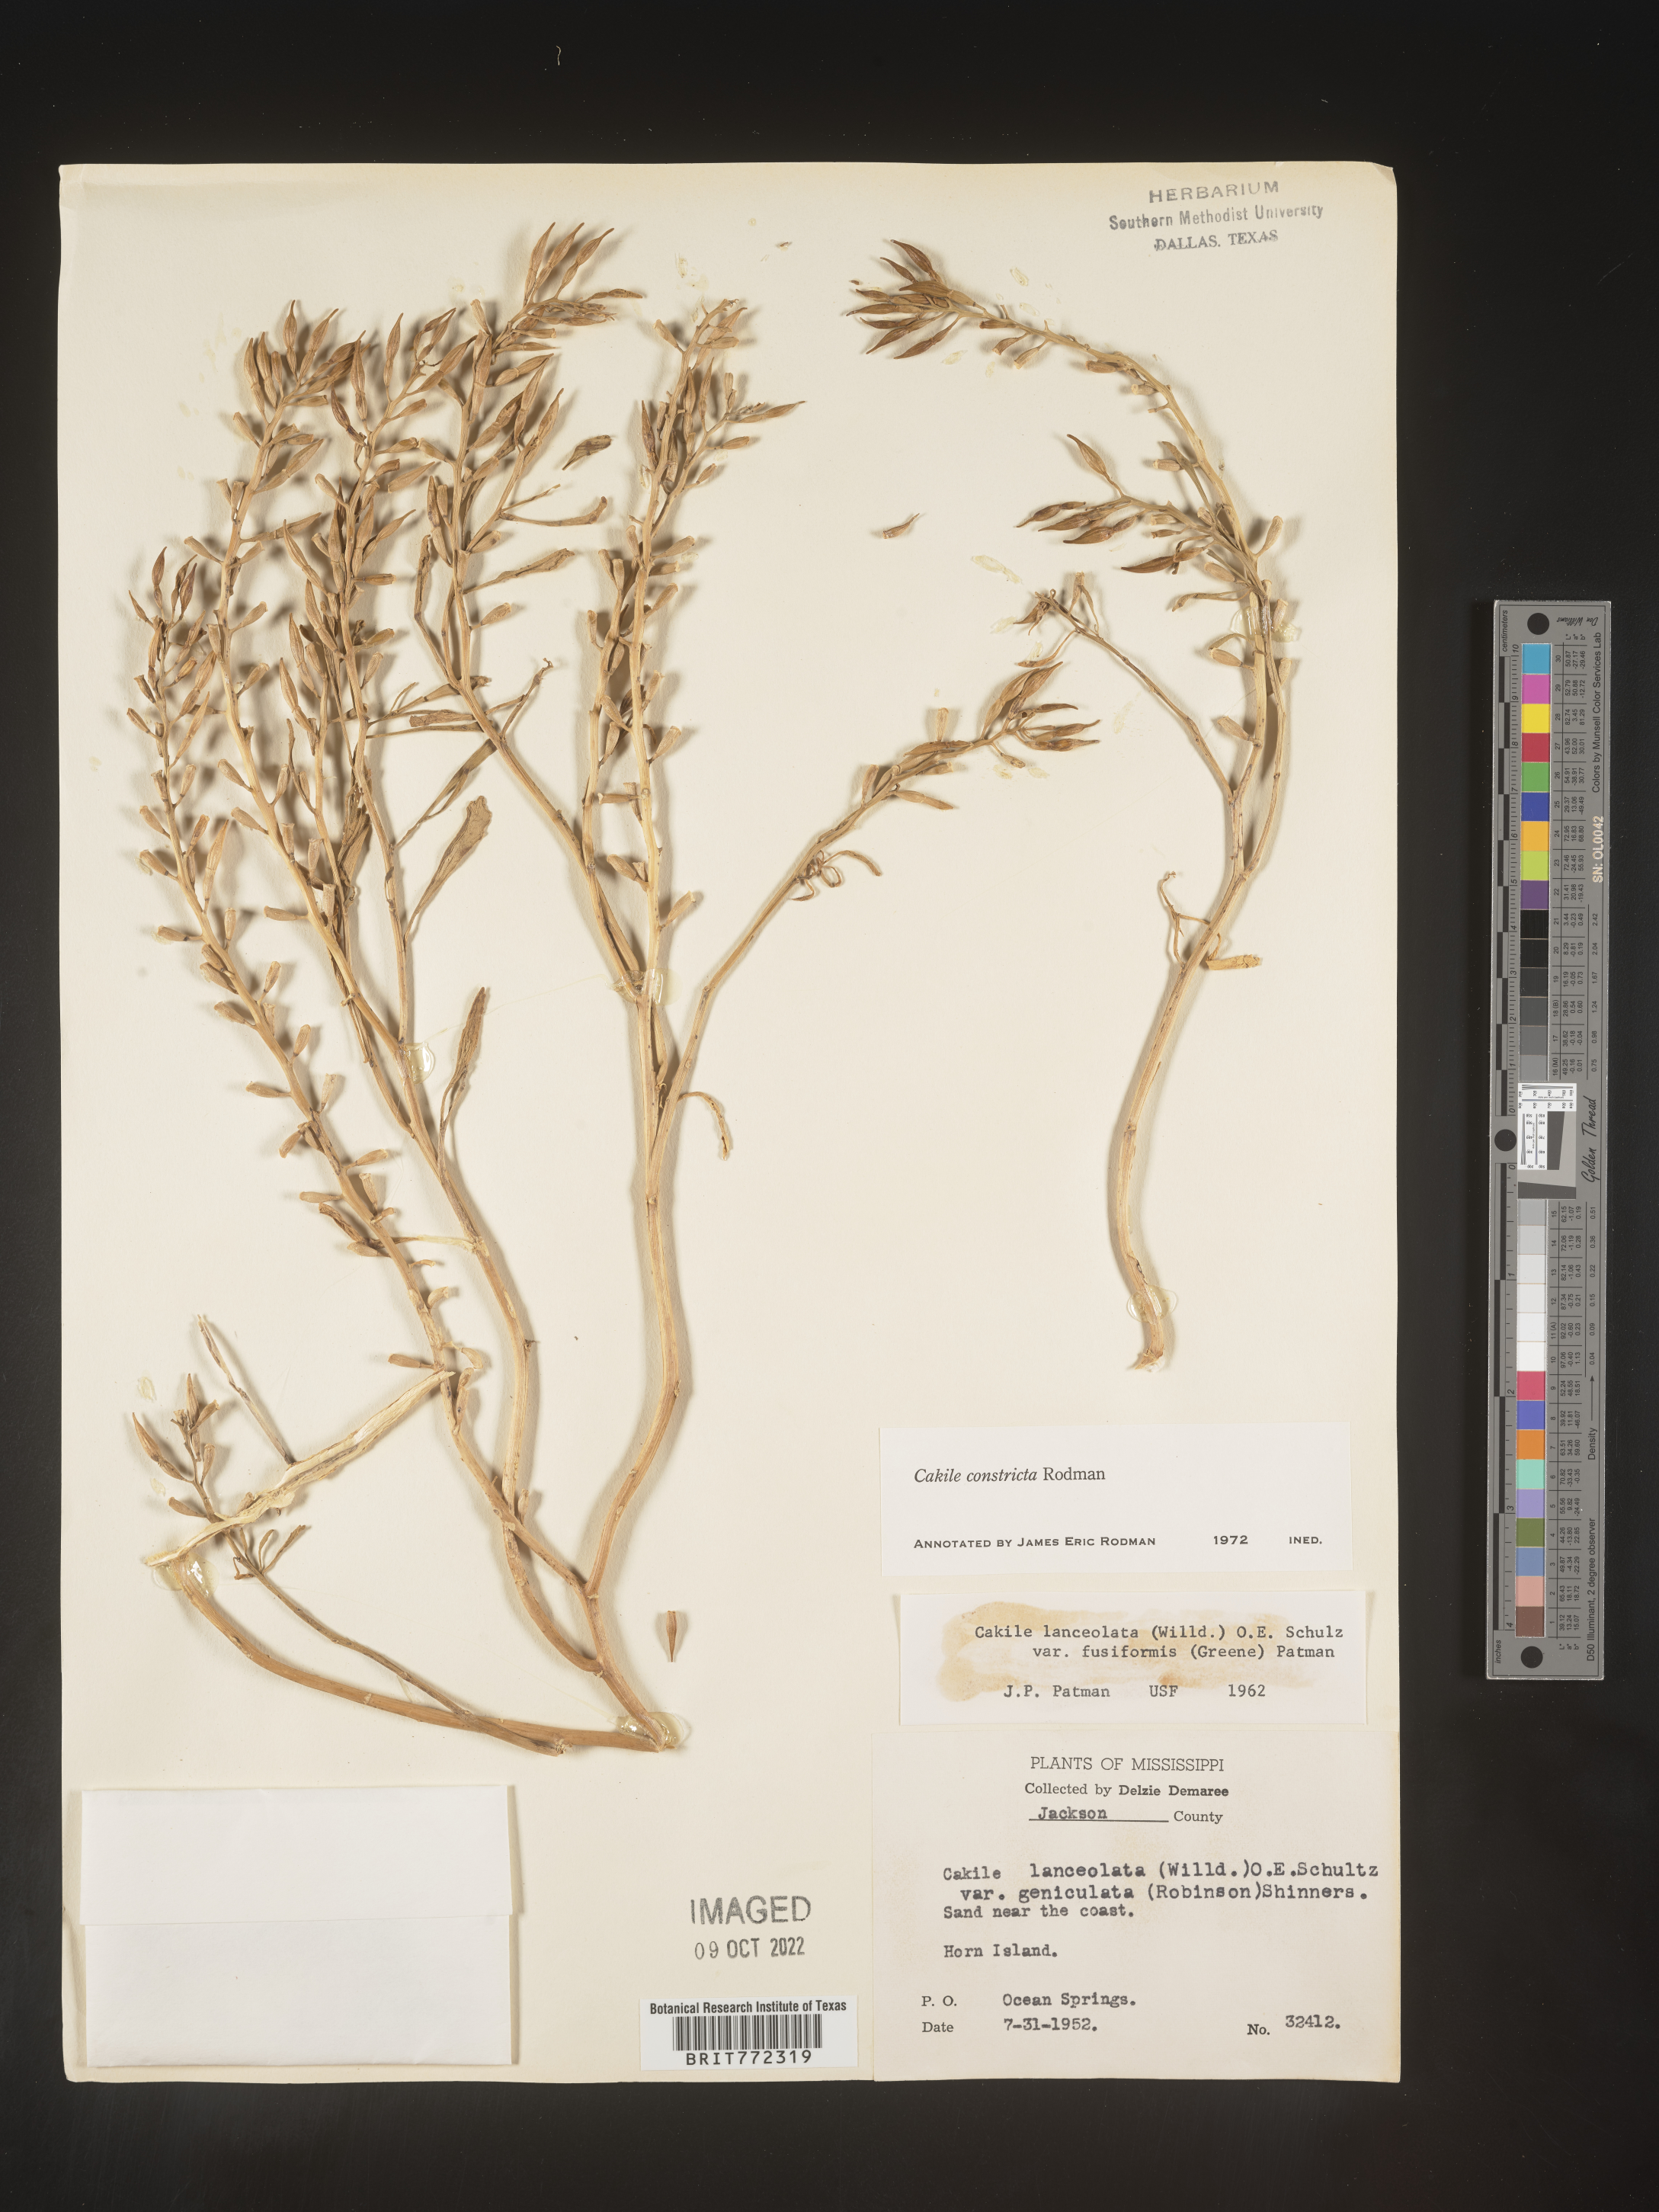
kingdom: Plantae
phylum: Tracheophyta
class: Magnoliopsida
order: Brassicales
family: Brassicaceae
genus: Cakile
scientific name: Cakile constricta
